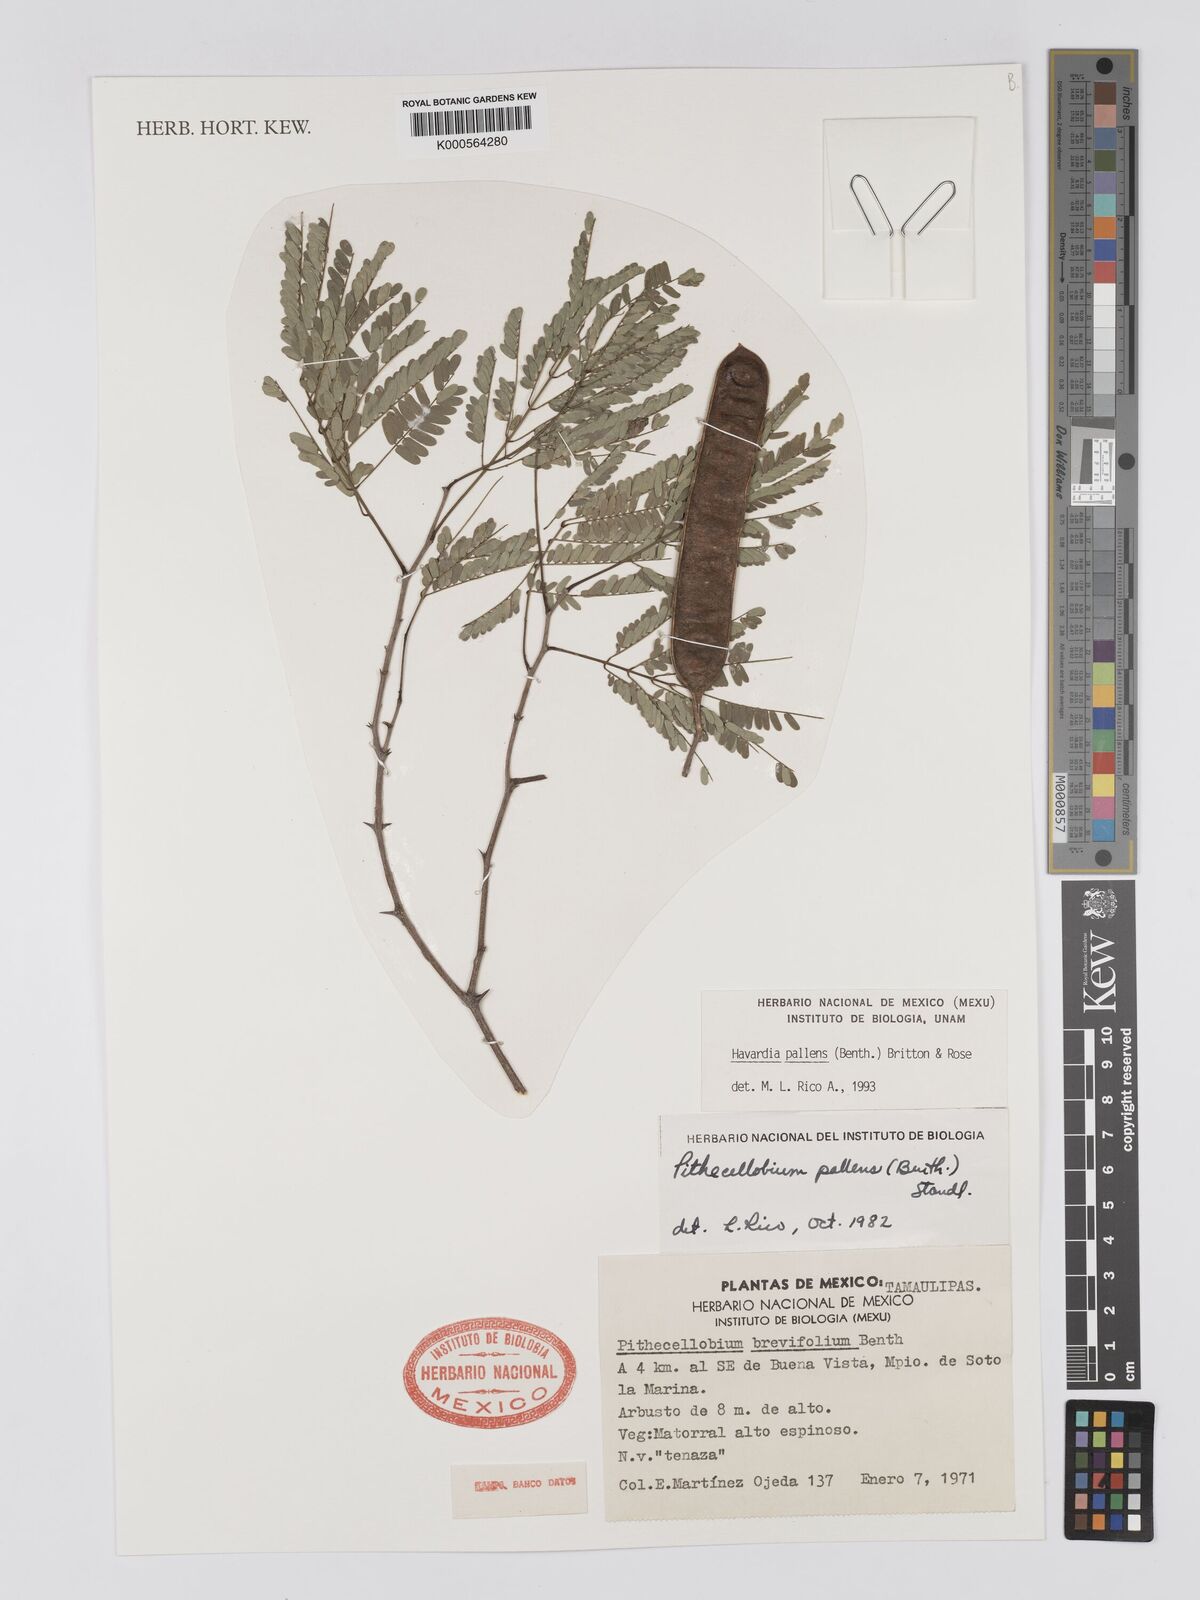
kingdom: Plantae
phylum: Tracheophyta
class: Magnoliopsida
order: Fabales
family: Fabaceae
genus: Havardia
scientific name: Havardia pallens
